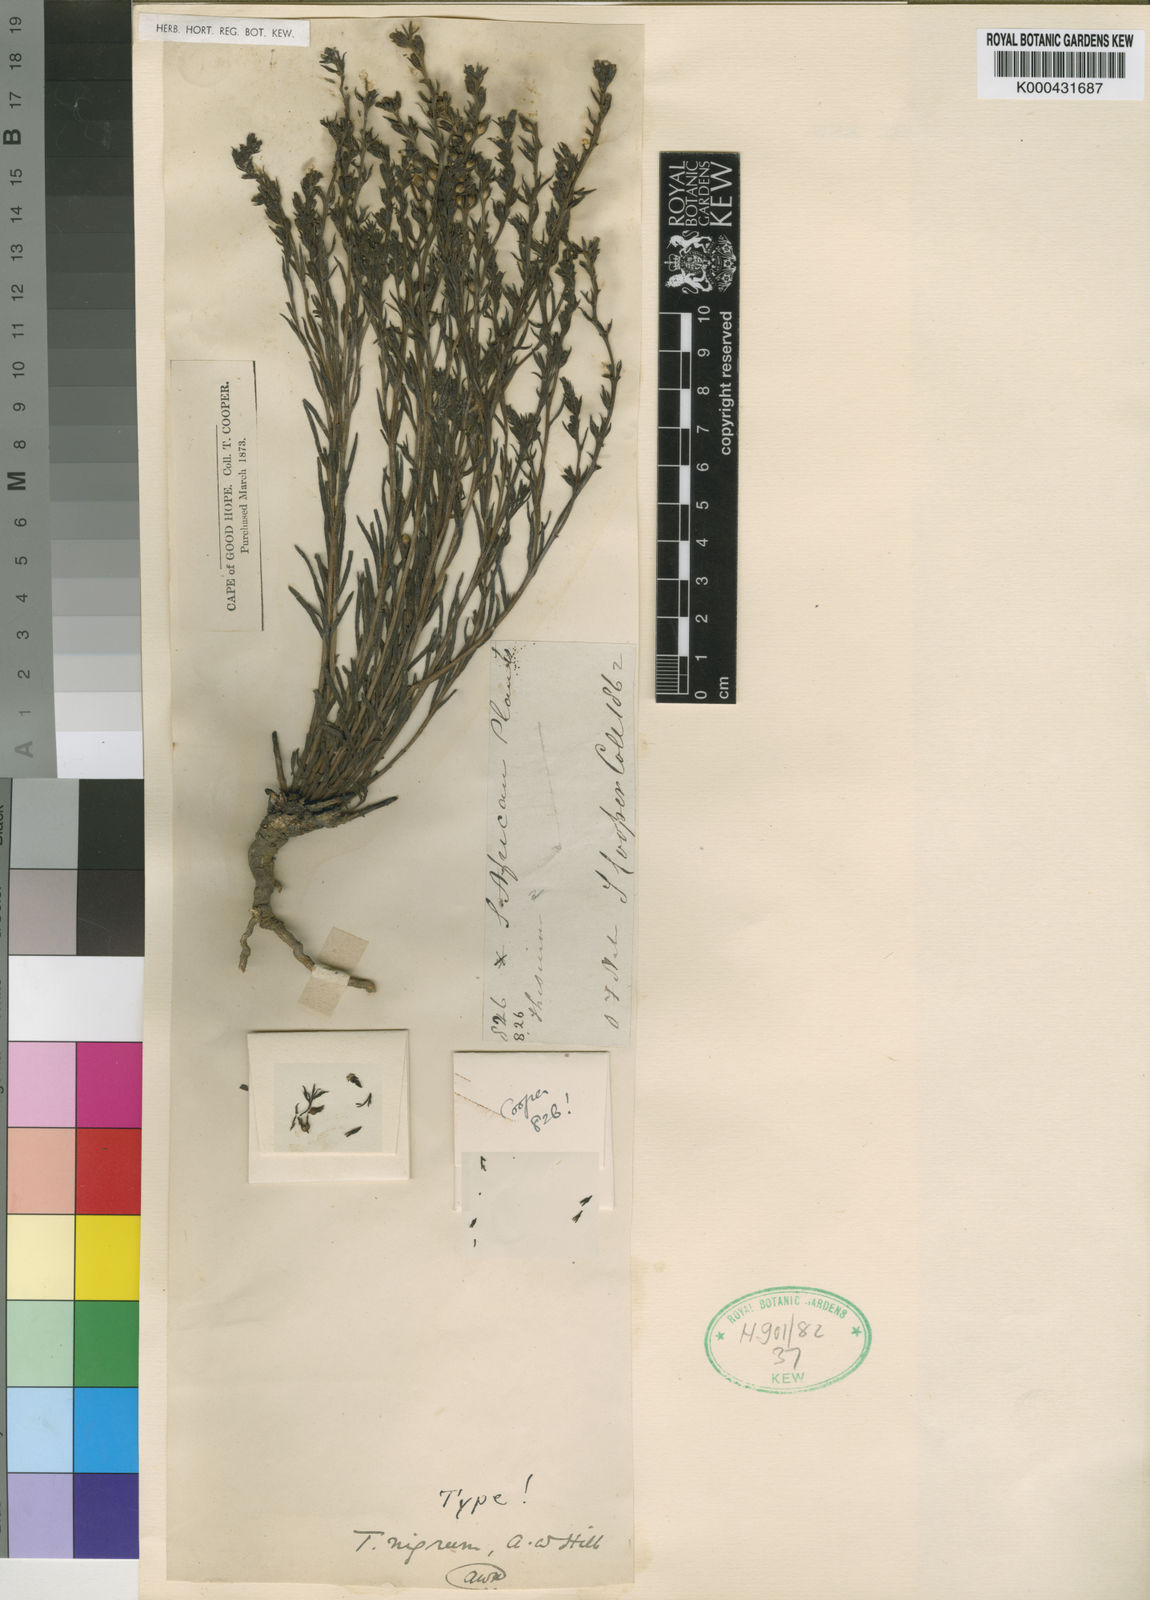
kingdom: Plantae
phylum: Tracheophyta
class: Magnoliopsida
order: Santalales
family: Thesiaceae
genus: Thesium
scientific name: Thesium nigrum
